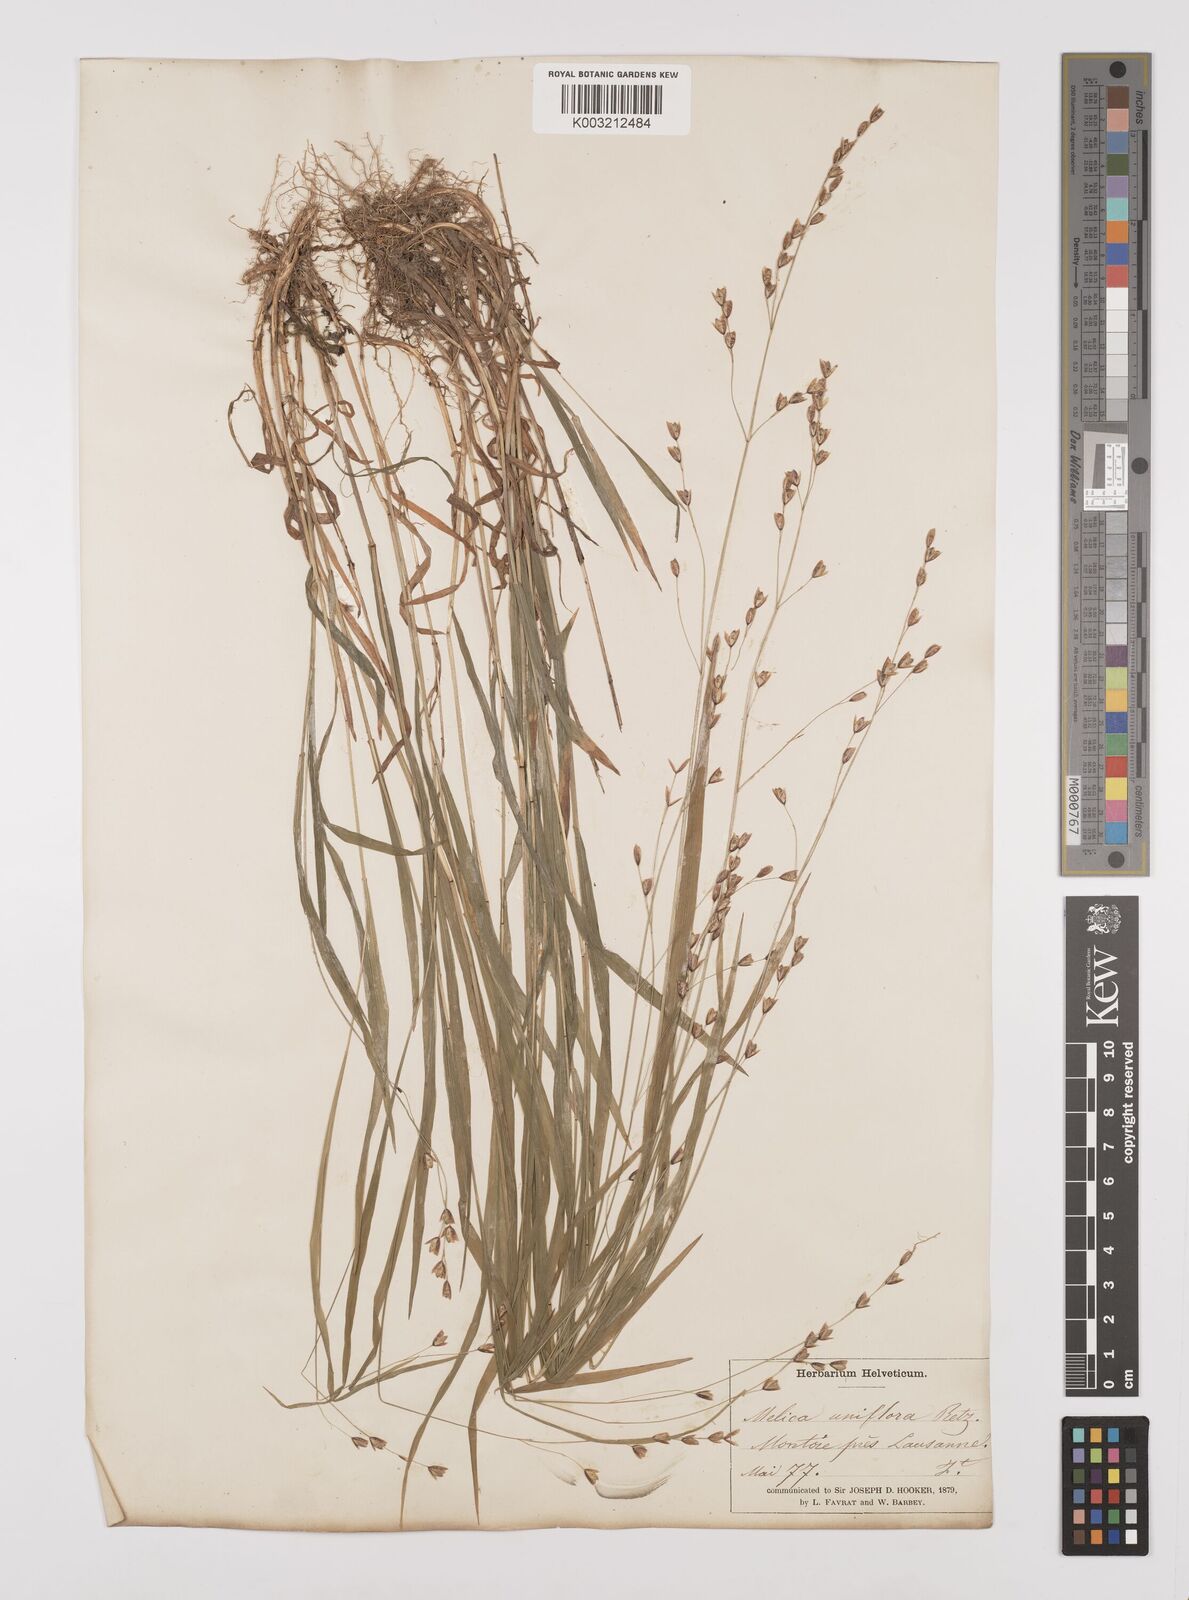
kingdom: Plantae
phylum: Tracheophyta
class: Liliopsida
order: Poales
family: Poaceae
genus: Melica
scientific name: Melica uniflora
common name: Wood melick
